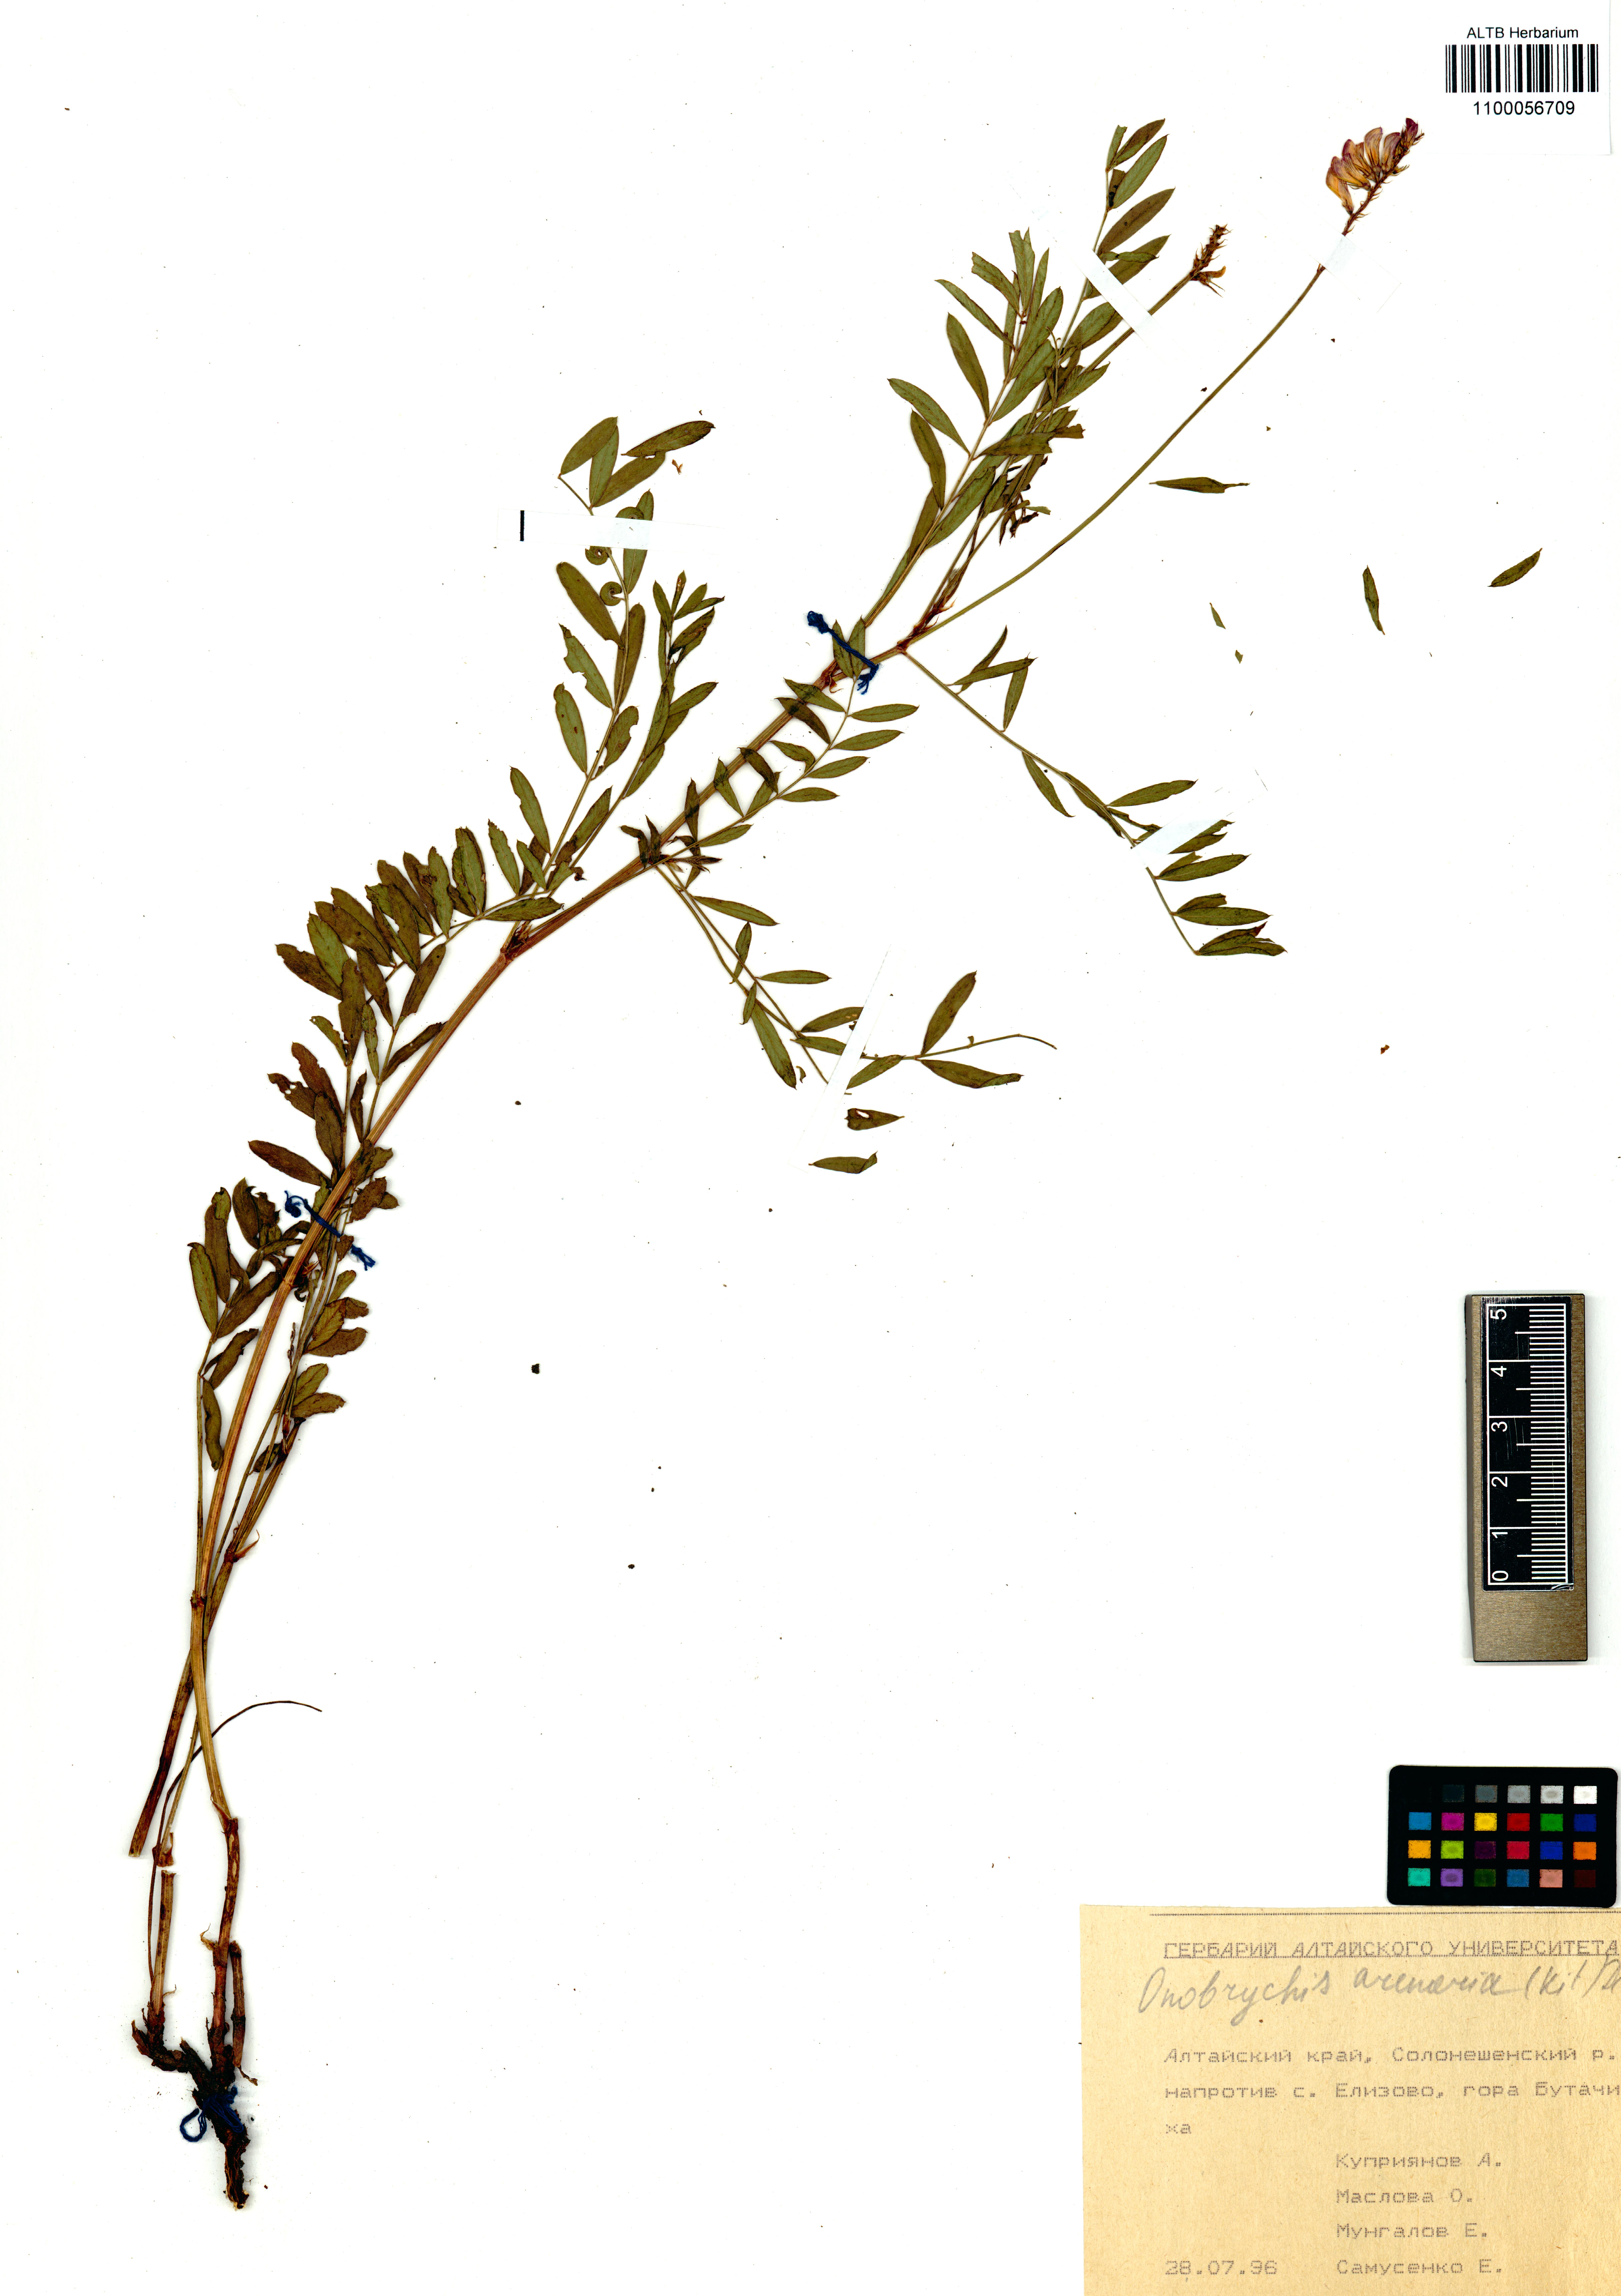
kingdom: Plantae
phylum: Tracheophyta
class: Magnoliopsida
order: Fabales
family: Fabaceae
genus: Onobrychis
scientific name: Onobrychis arenaria
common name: Sand esparcet
